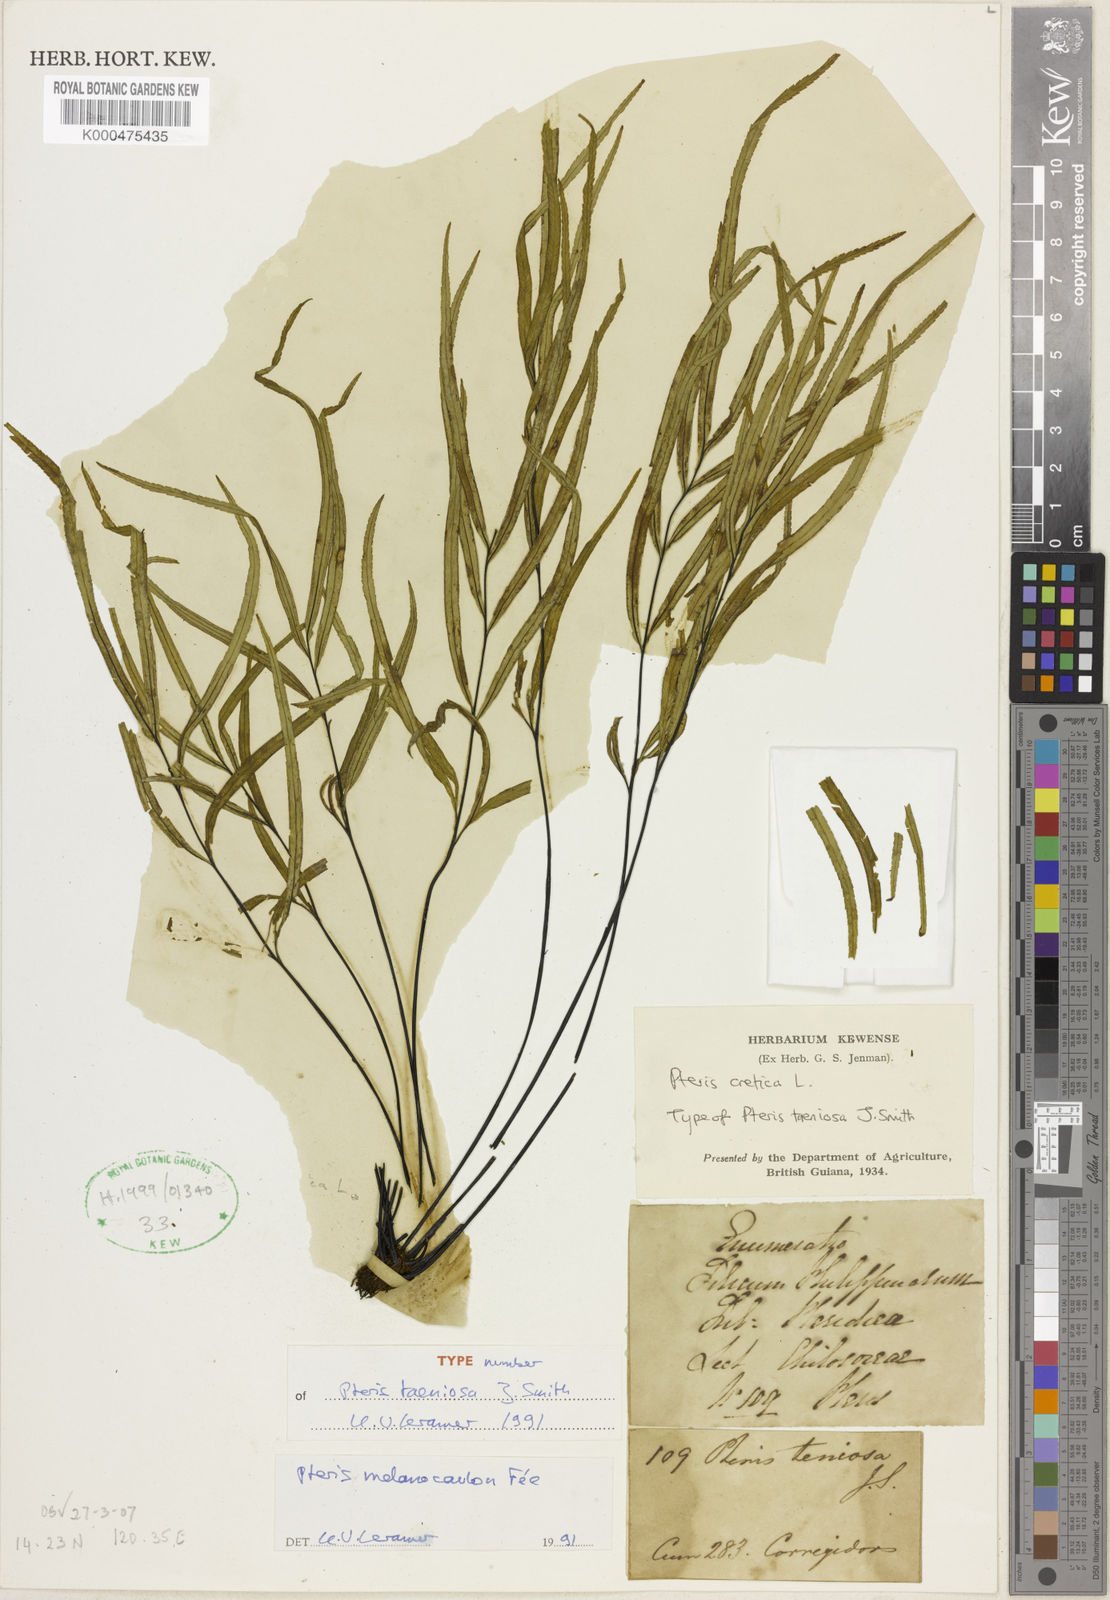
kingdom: Plantae
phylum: Tracheophyta
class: Polypodiopsida
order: Polypodiales
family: Pteridaceae
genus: Pteris
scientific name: Pteris
